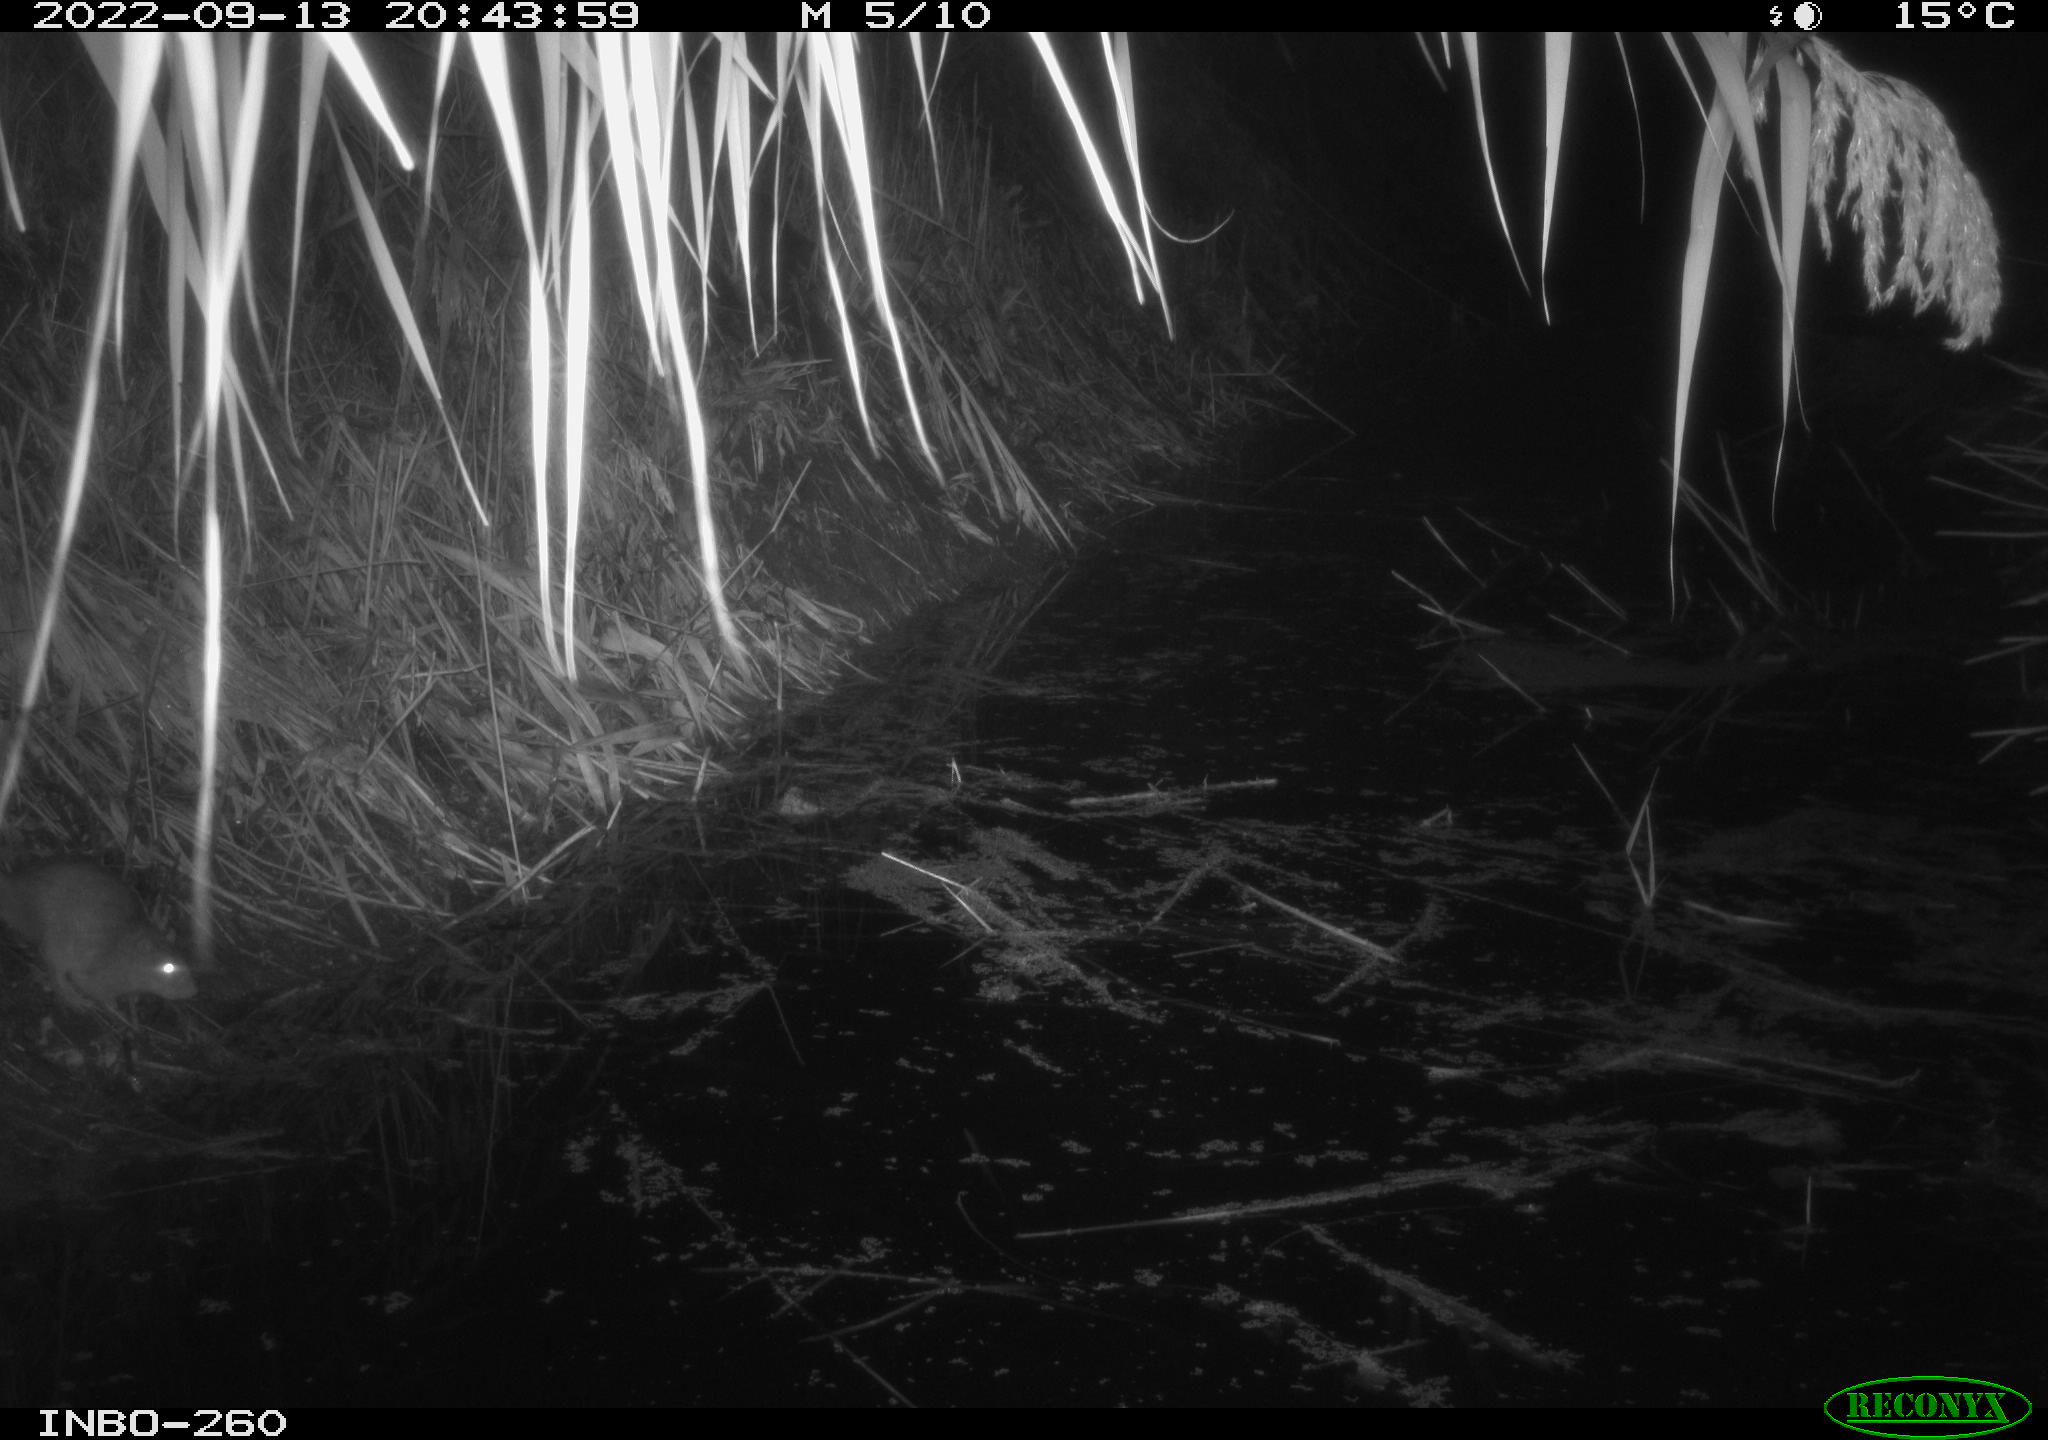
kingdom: Animalia
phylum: Chordata
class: Mammalia
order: Rodentia
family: Muridae
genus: Rattus
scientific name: Rattus norvegicus
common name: Brown rat
